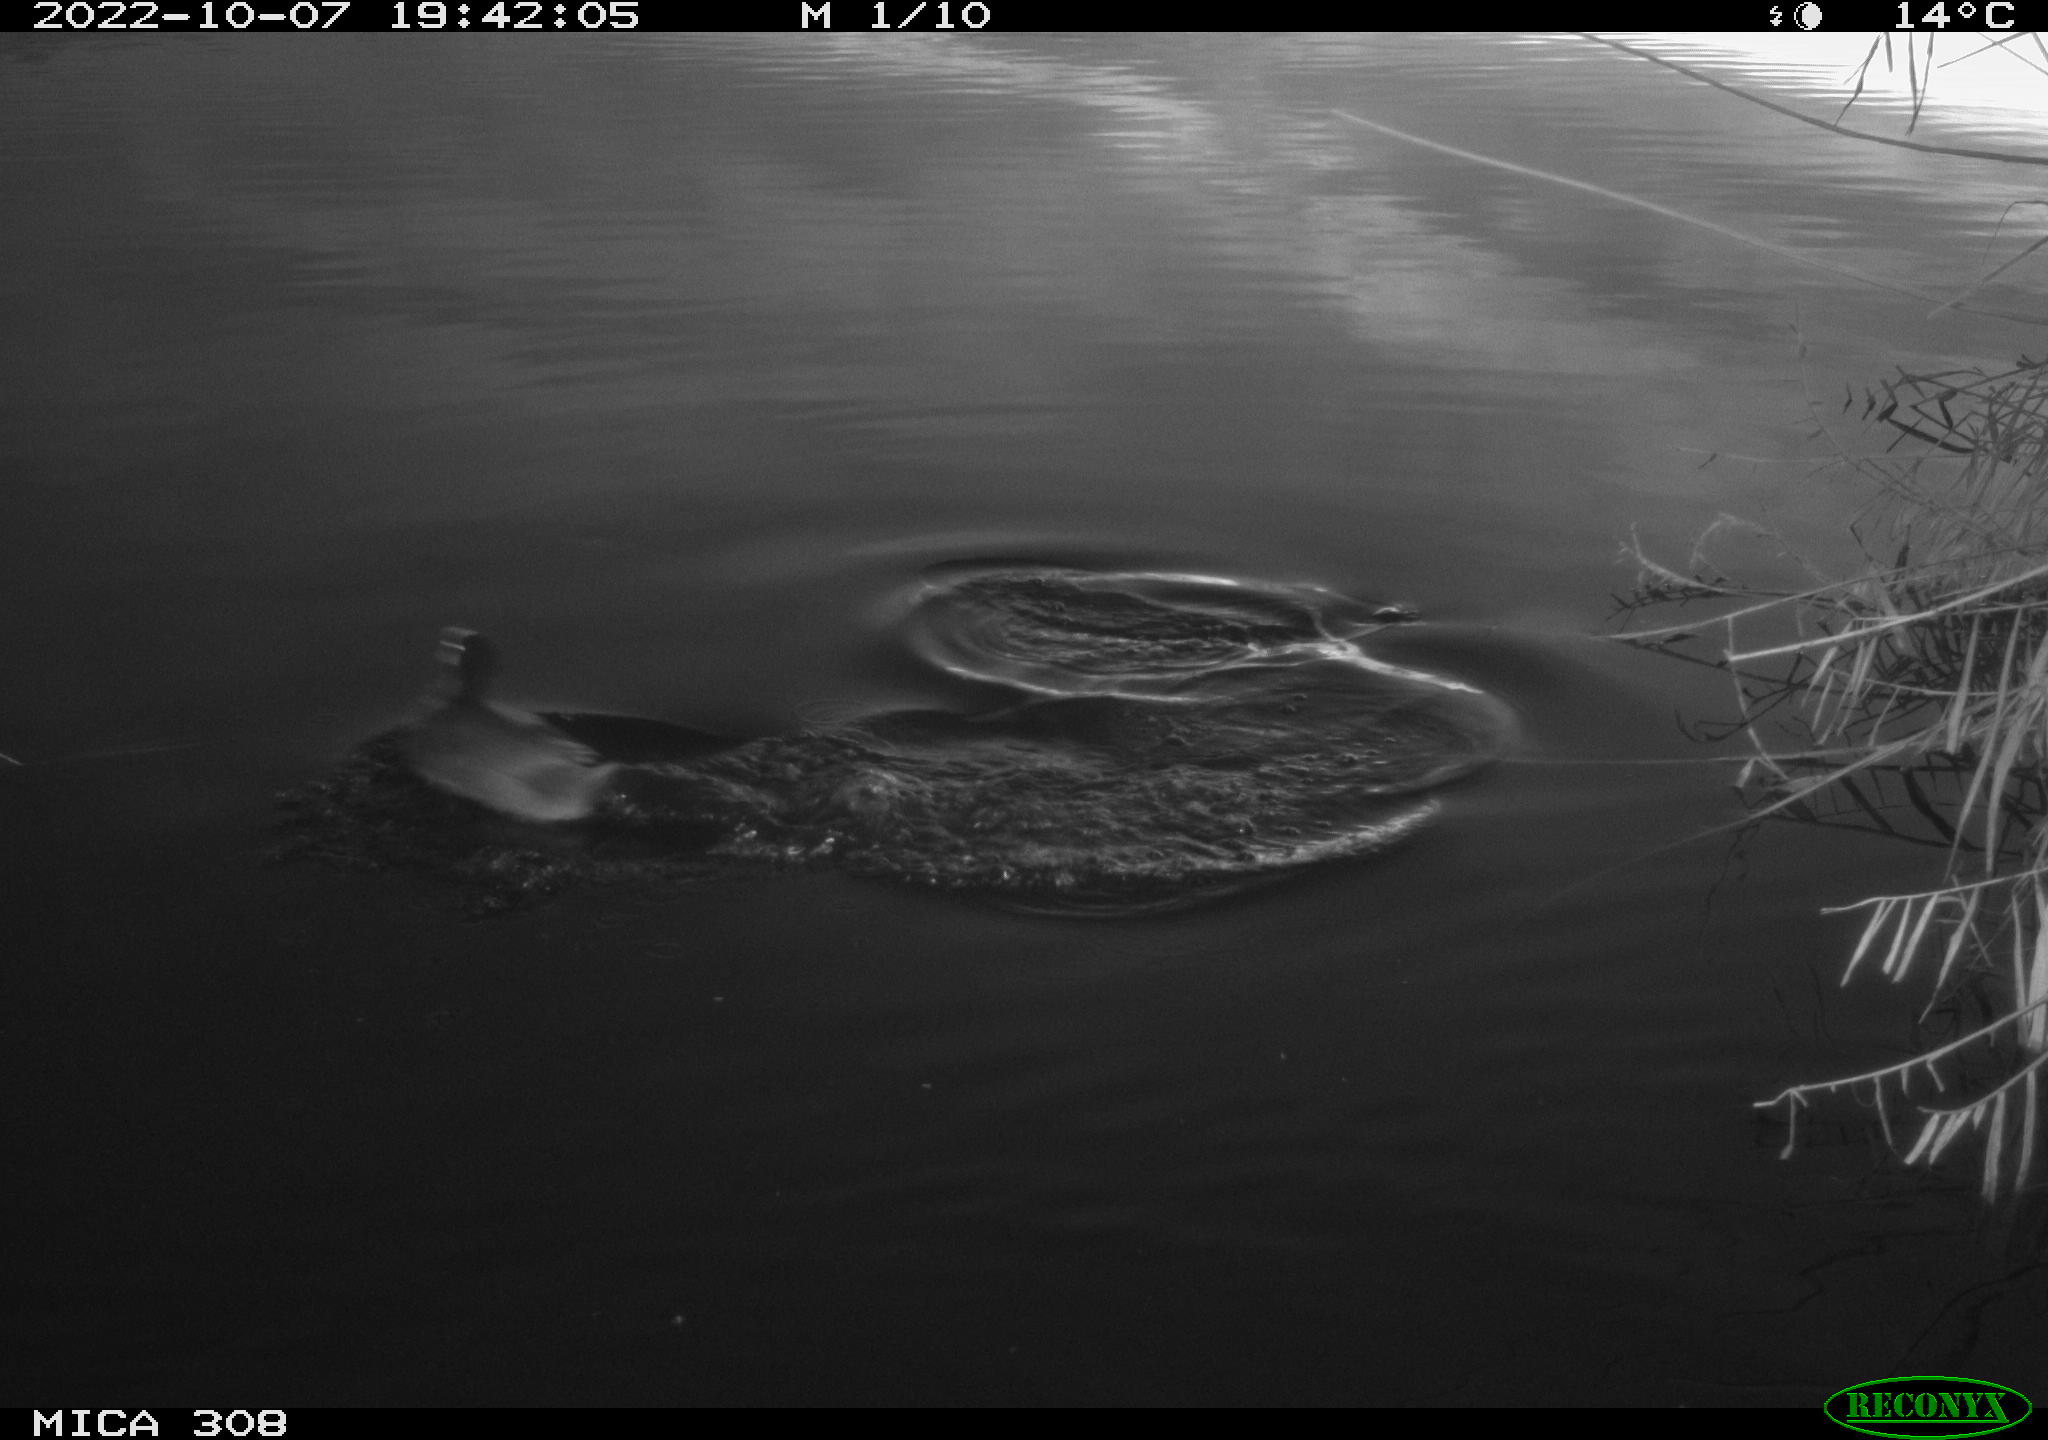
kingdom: Animalia
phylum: Chordata
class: Aves
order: Gruiformes
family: Rallidae
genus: Fulica
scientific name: Fulica atra
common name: Eurasian coot
